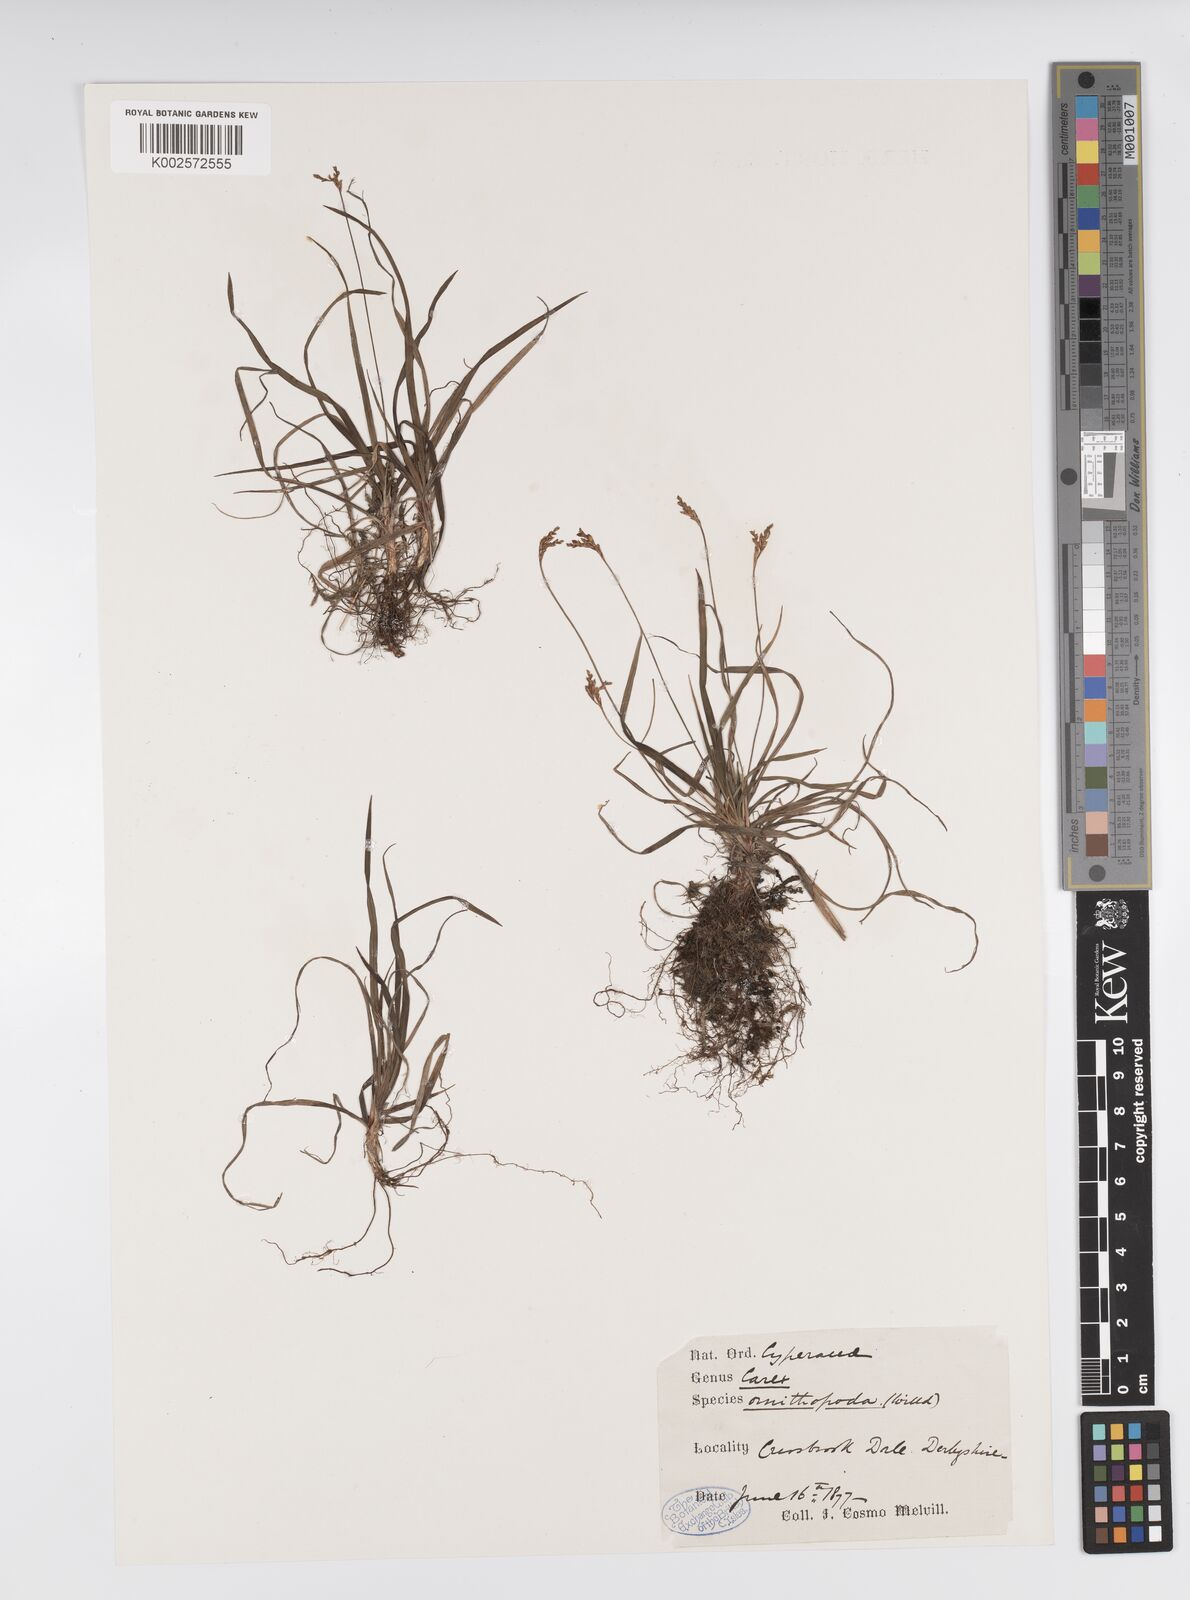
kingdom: Plantae
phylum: Tracheophyta
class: Liliopsida
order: Poales
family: Cyperaceae
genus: Carex
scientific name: Carex ornithopoda
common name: Bird's-foot sedge
